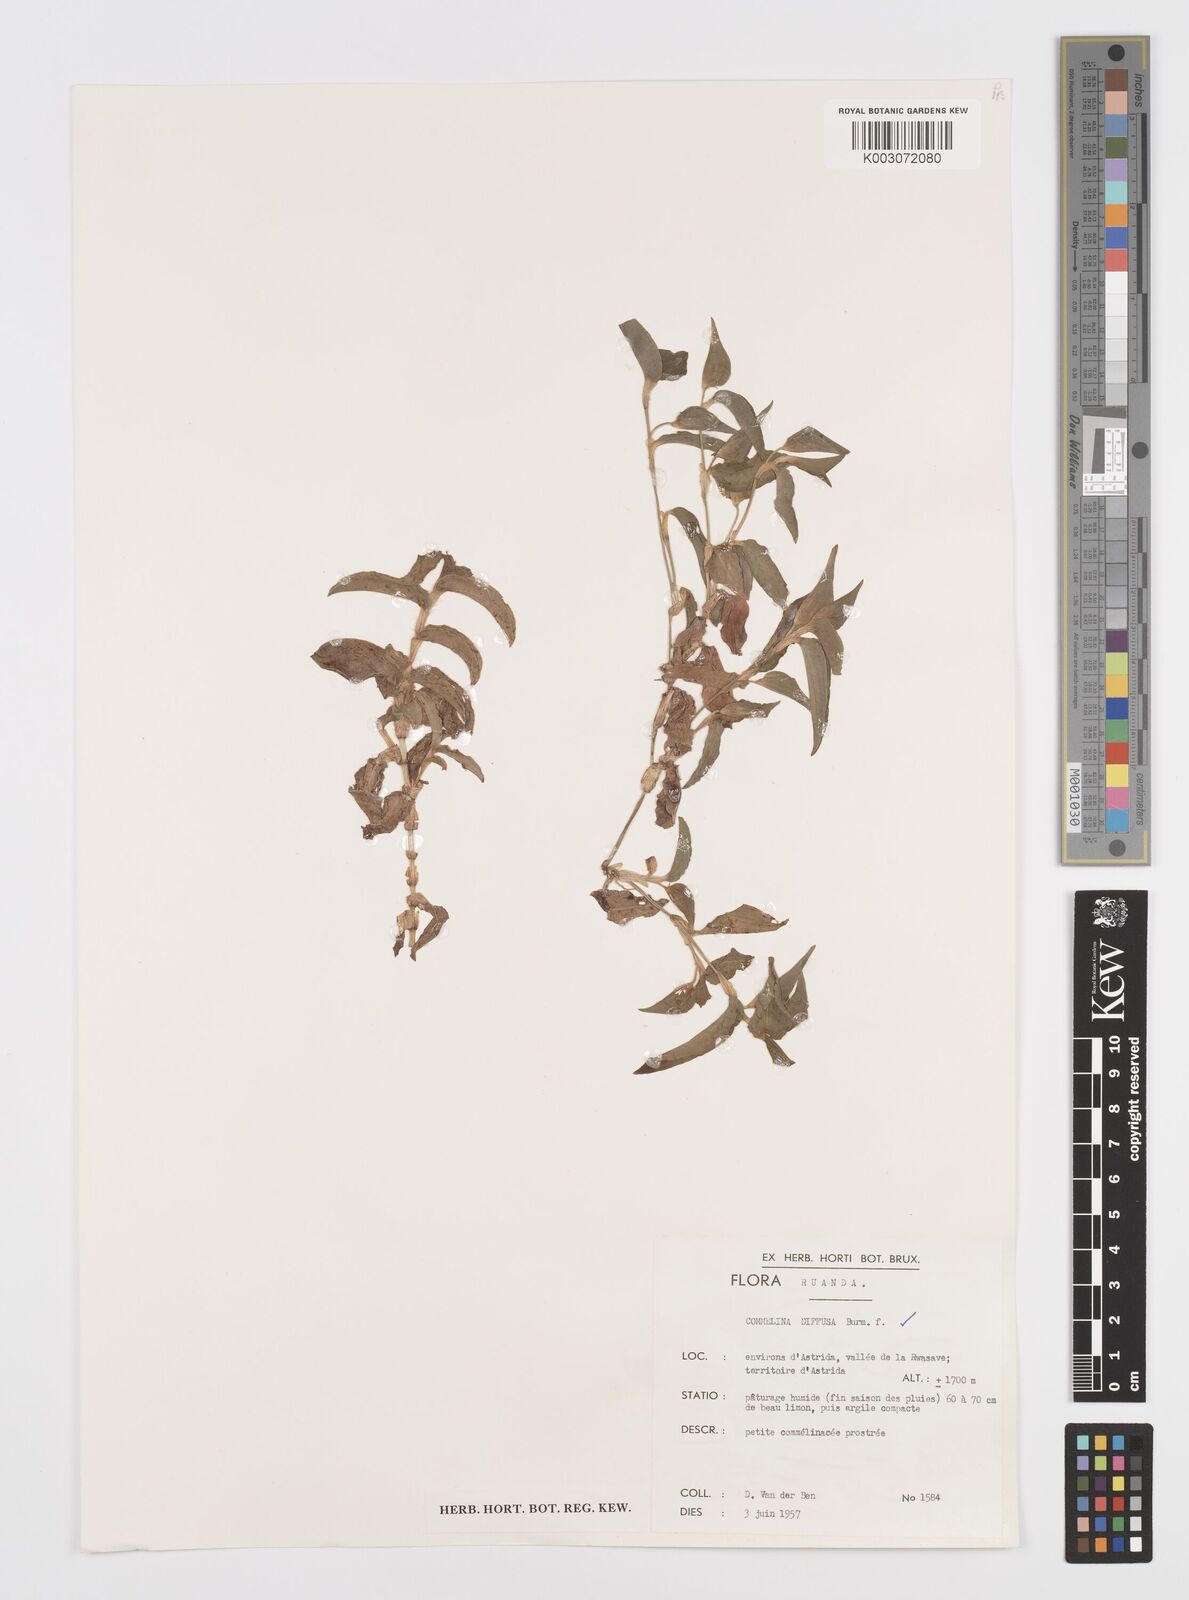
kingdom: Plantae
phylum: Tracheophyta
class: Liliopsida
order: Commelinales
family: Commelinaceae
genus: Commelina
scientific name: Commelina diffusa
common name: Climbing dayflower
